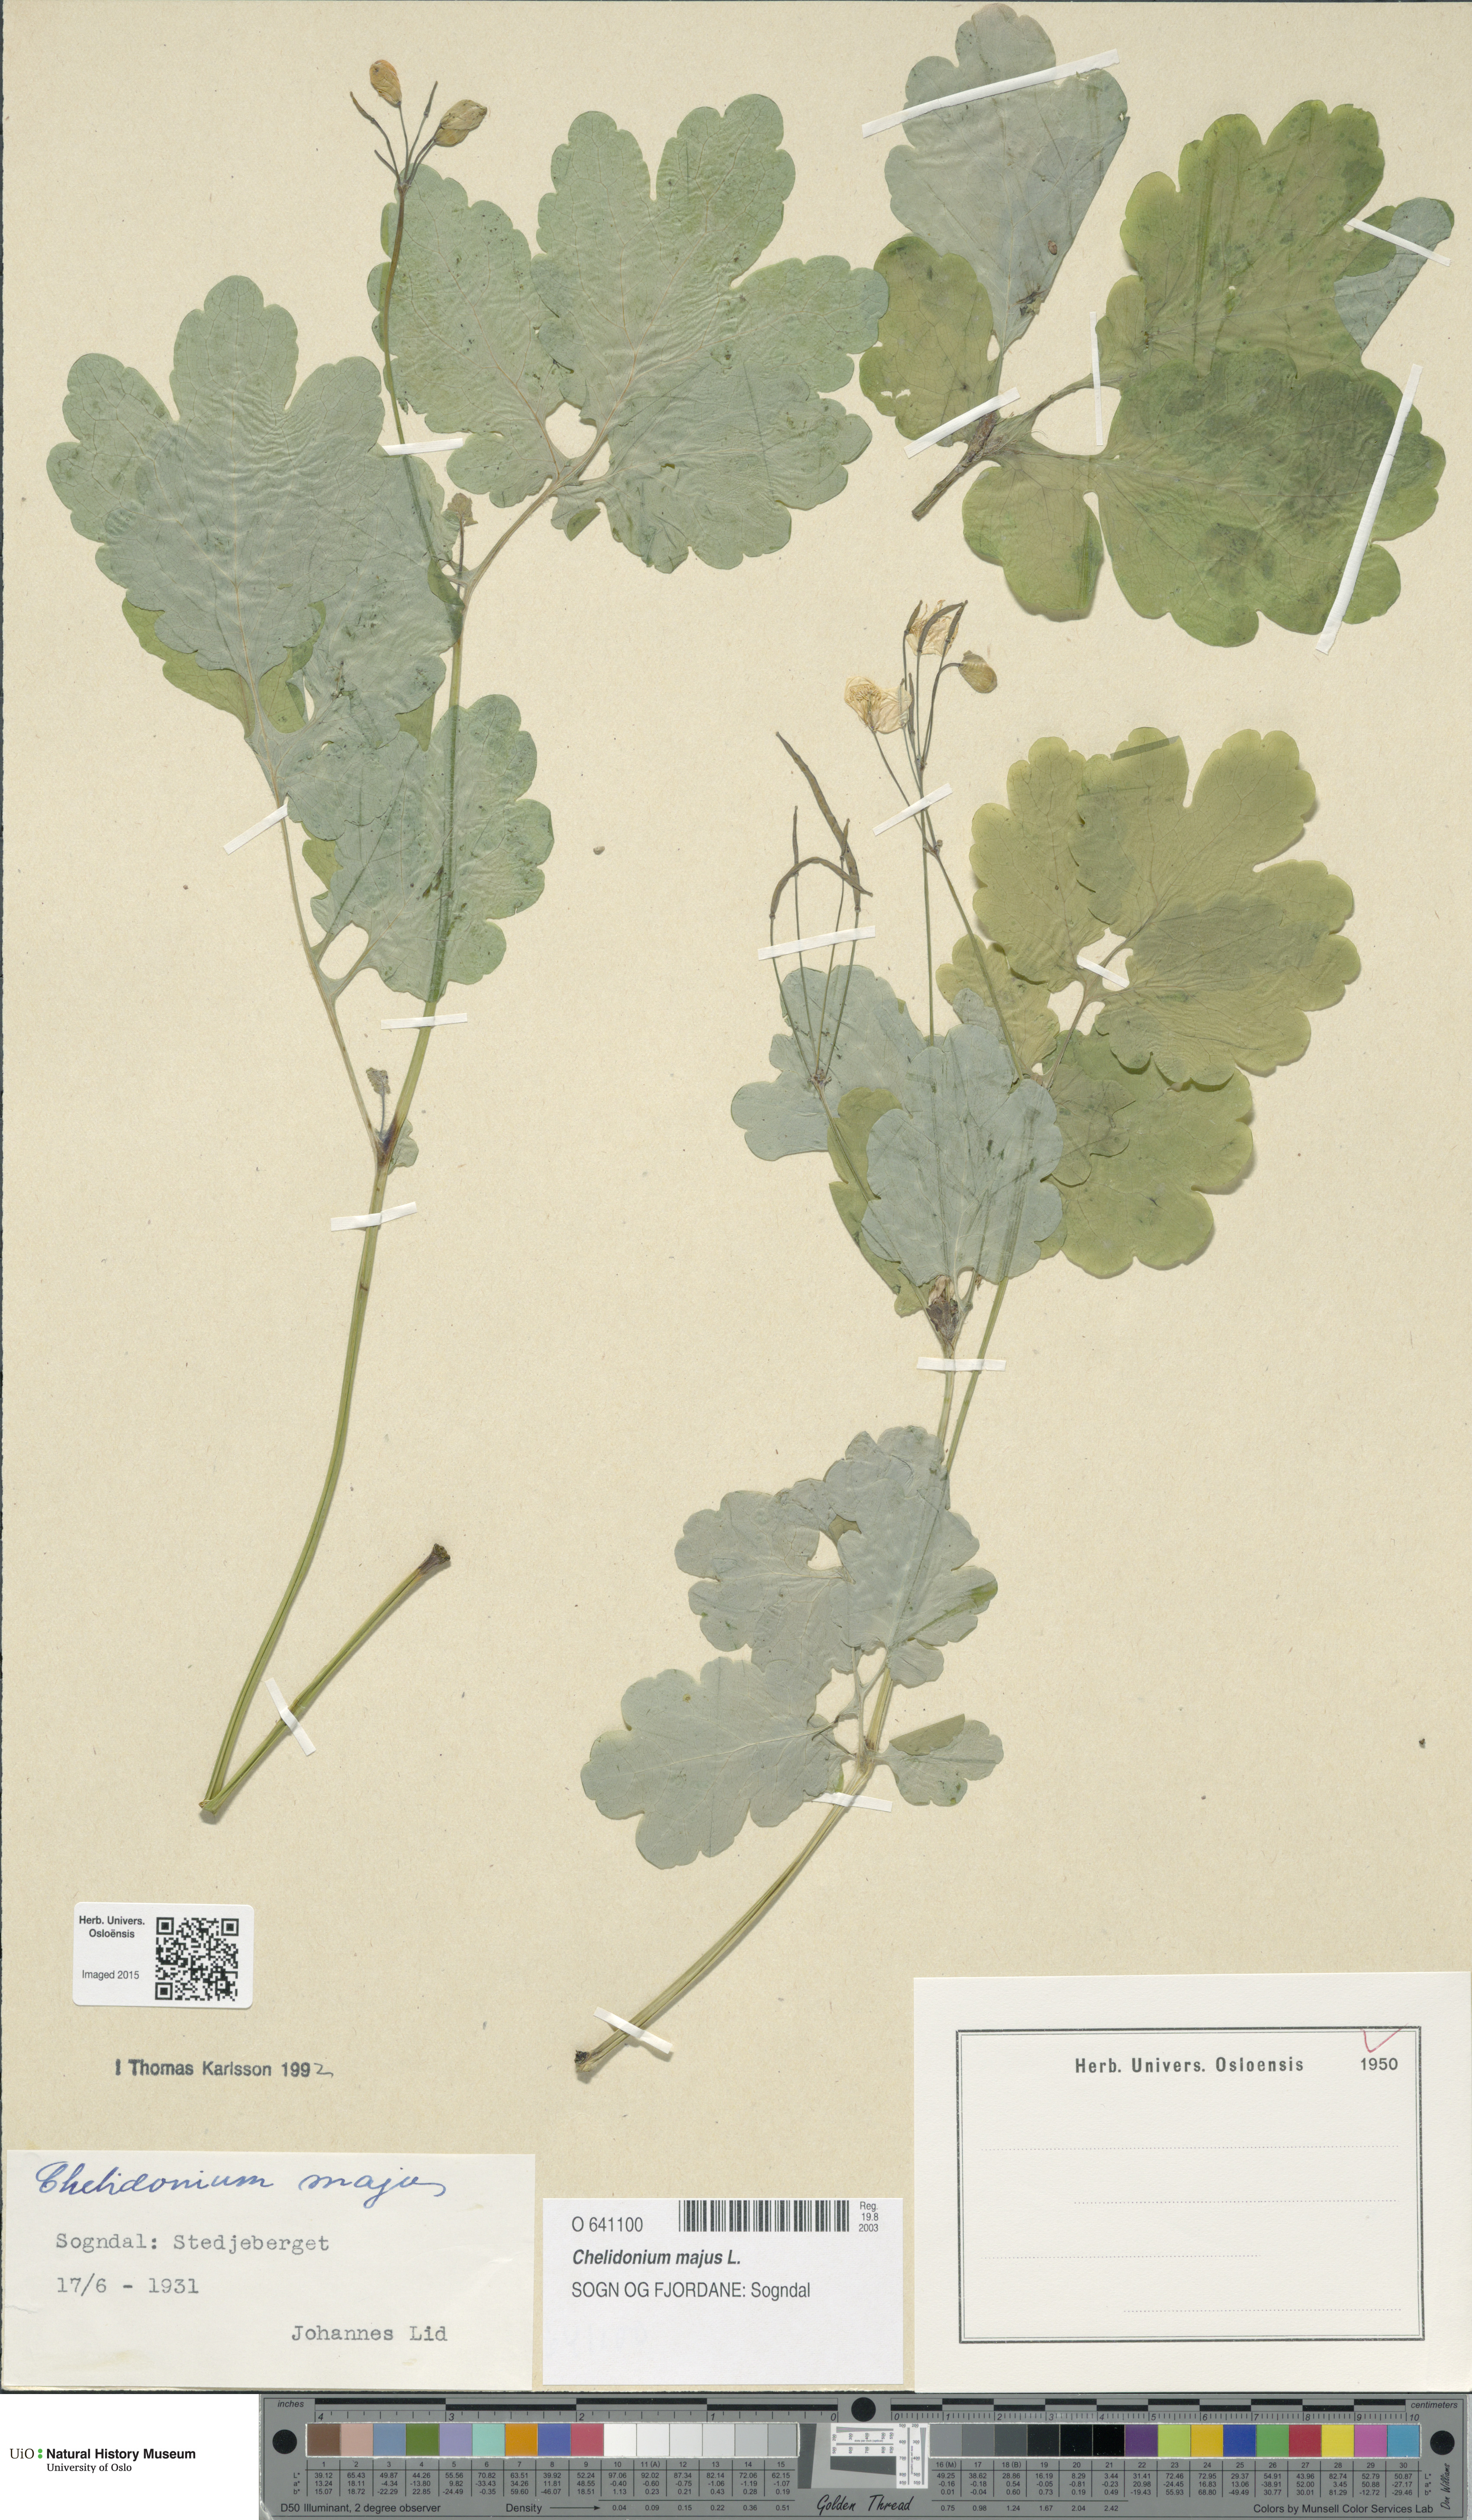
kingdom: Plantae
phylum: Tracheophyta
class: Magnoliopsida
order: Ranunculales
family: Papaveraceae
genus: Chelidonium
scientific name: Chelidonium majus
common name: Greater celandine
